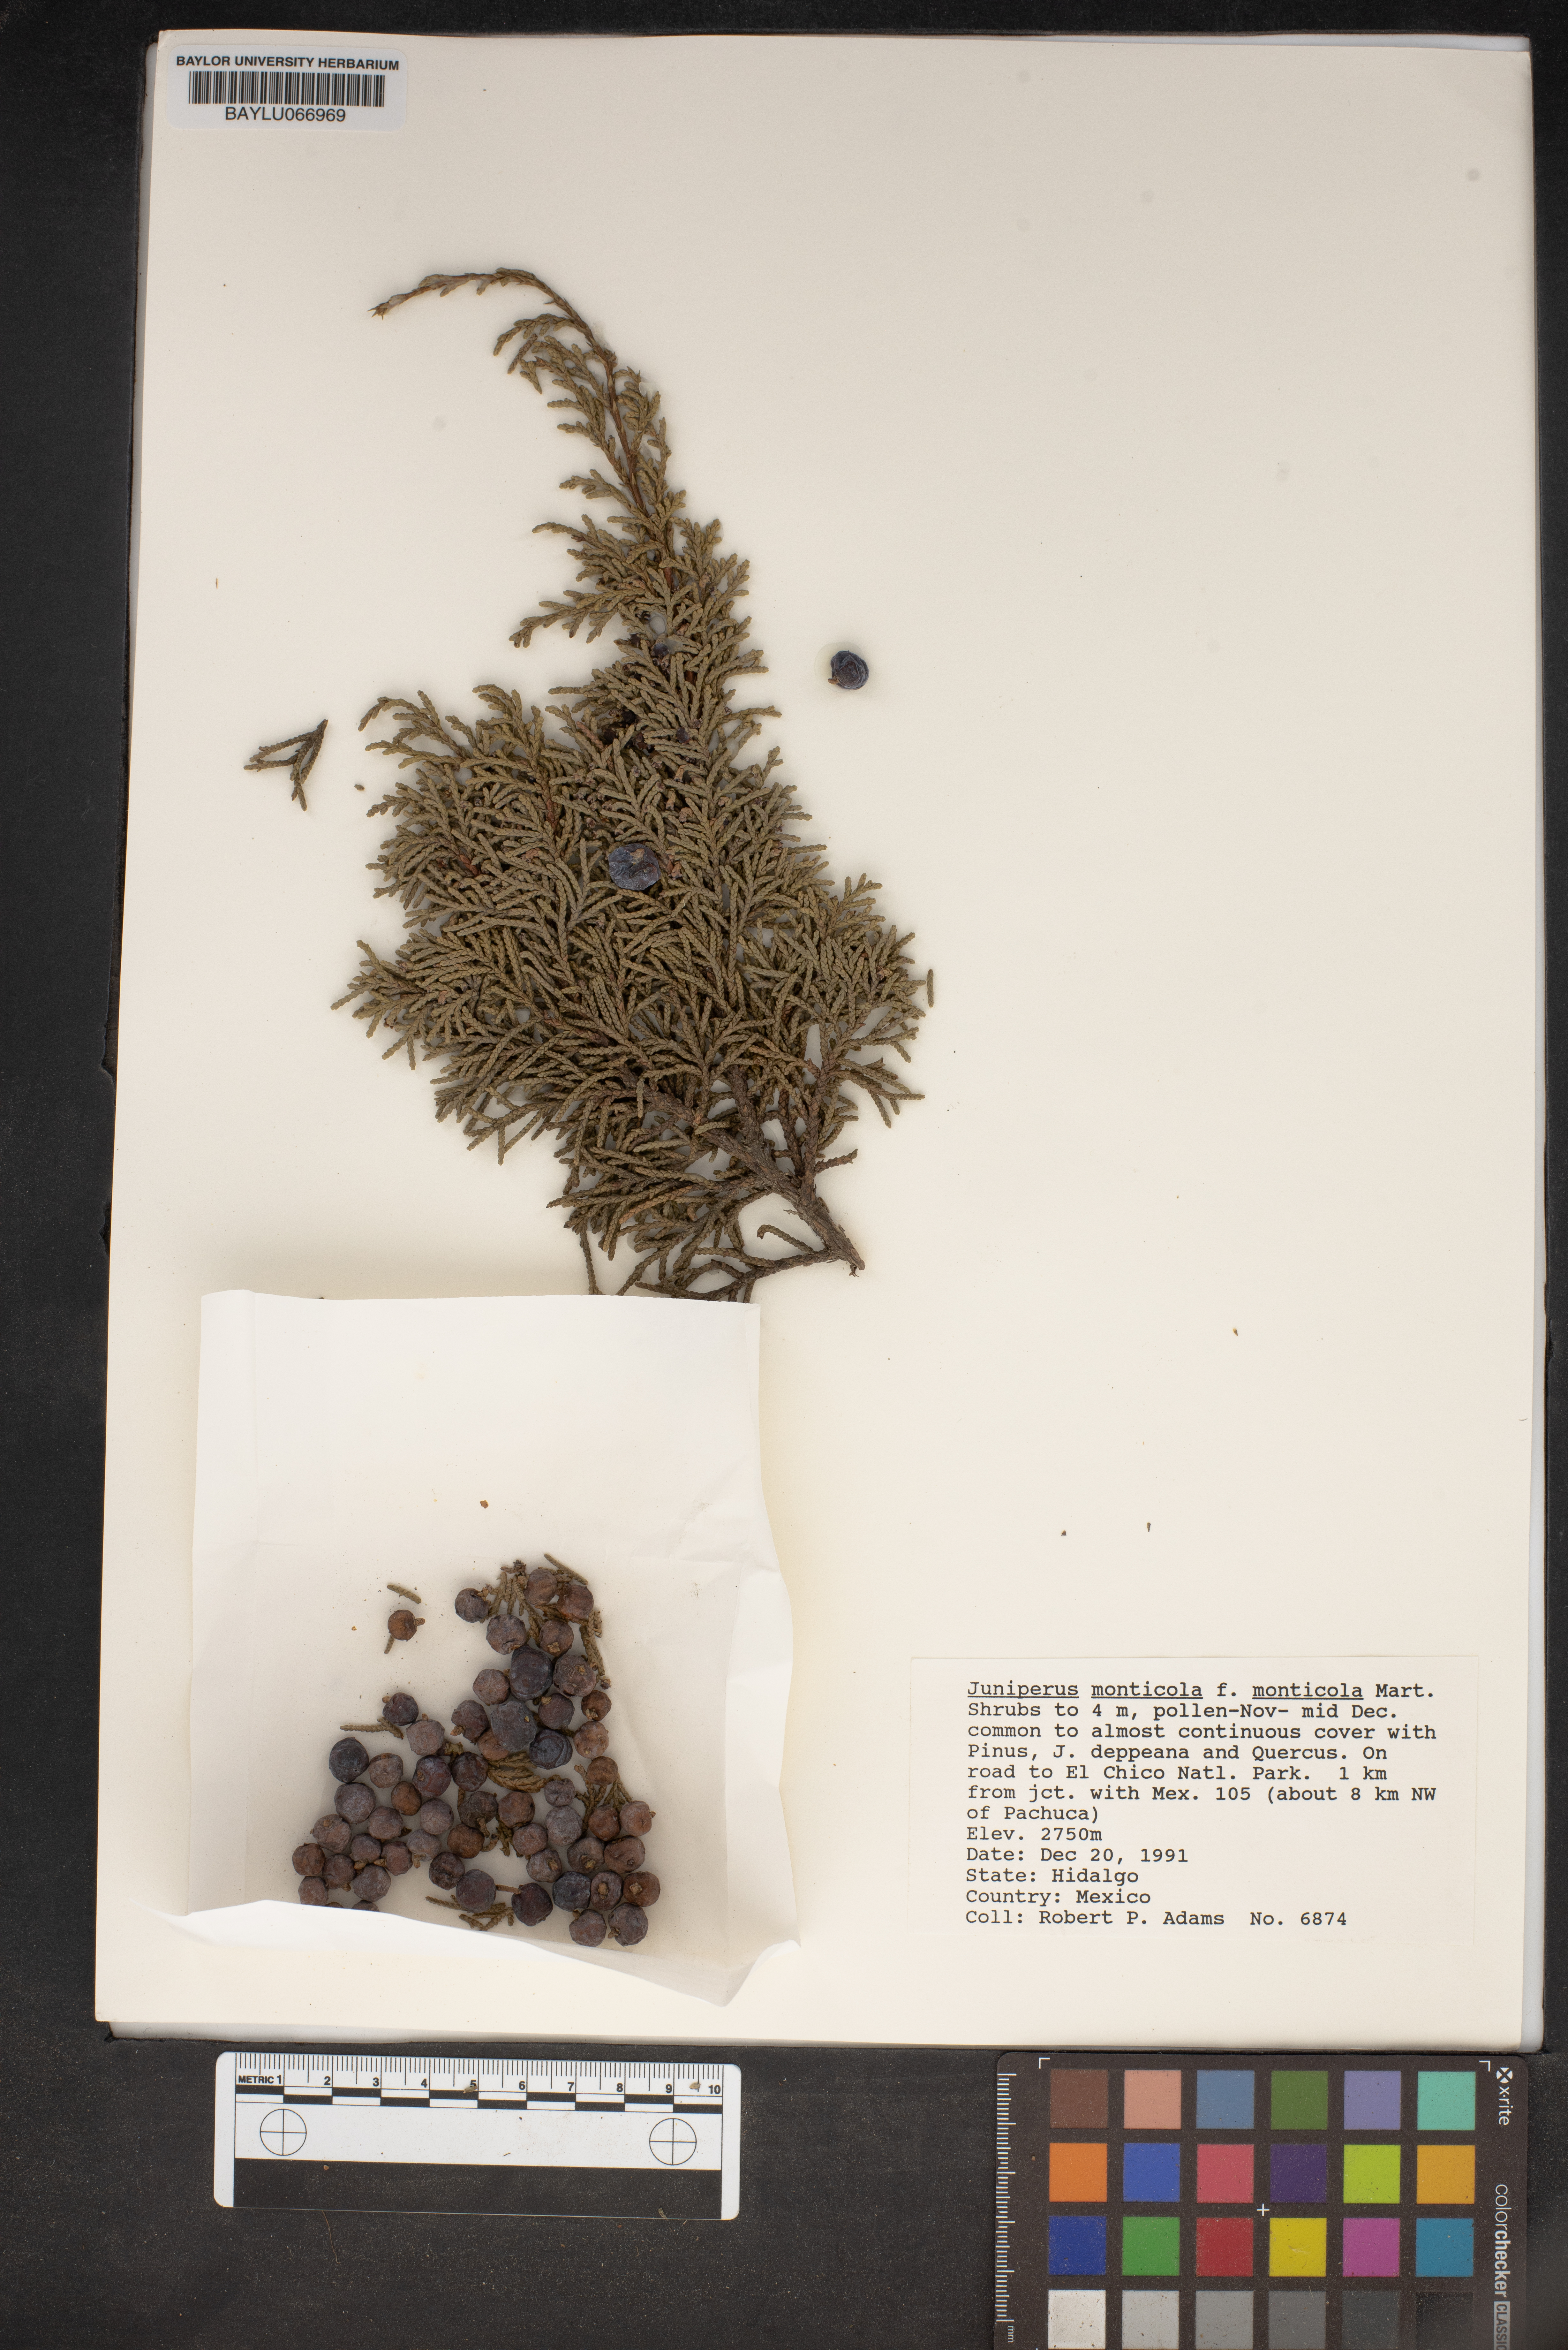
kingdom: Plantae
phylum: Tracheophyta
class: Pinopsida
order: Pinales
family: Cupressaceae
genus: Juniperus
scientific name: Juniperus monticola
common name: Mexican juniper
